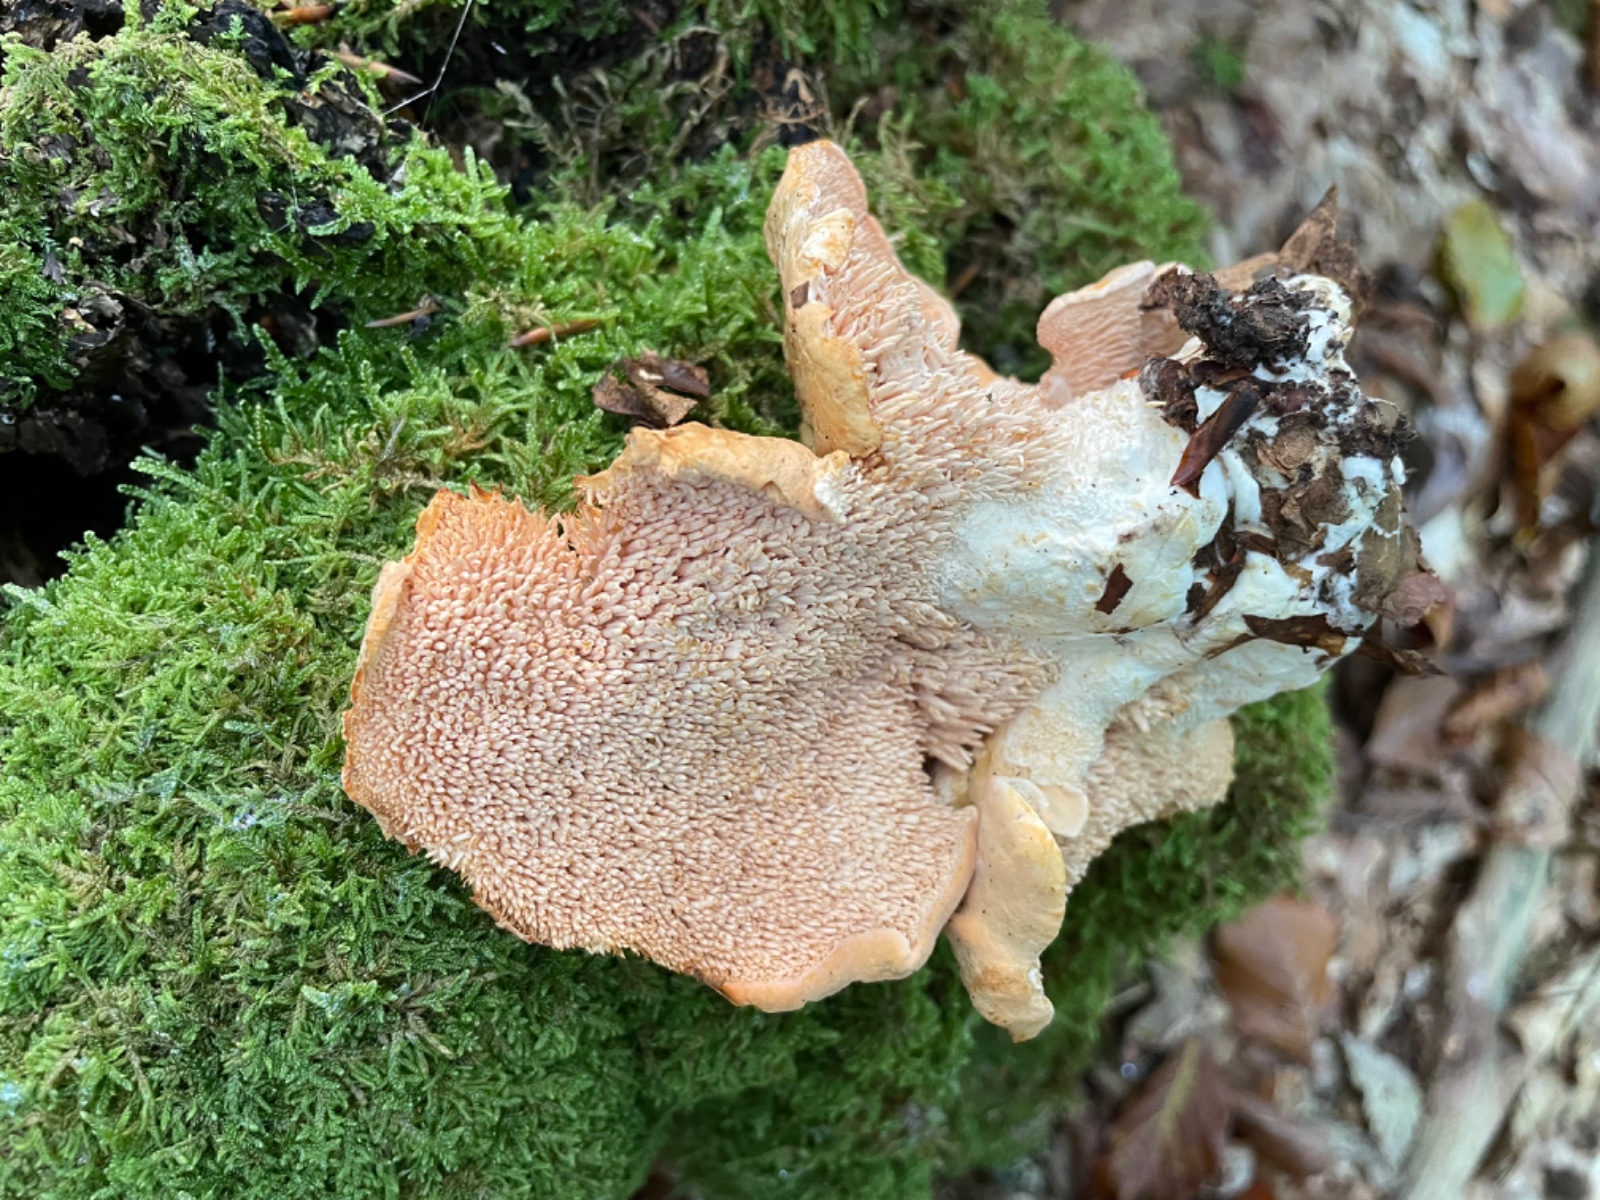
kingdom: Fungi
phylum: Basidiomycota
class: Agaricomycetes
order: Cantharellales
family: Hydnaceae
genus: Hydnum
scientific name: Hydnum
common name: pigsvamp
